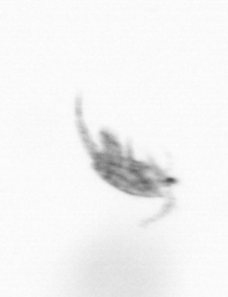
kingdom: Animalia
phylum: Arthropoda
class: Copepoda
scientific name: Copepoda
